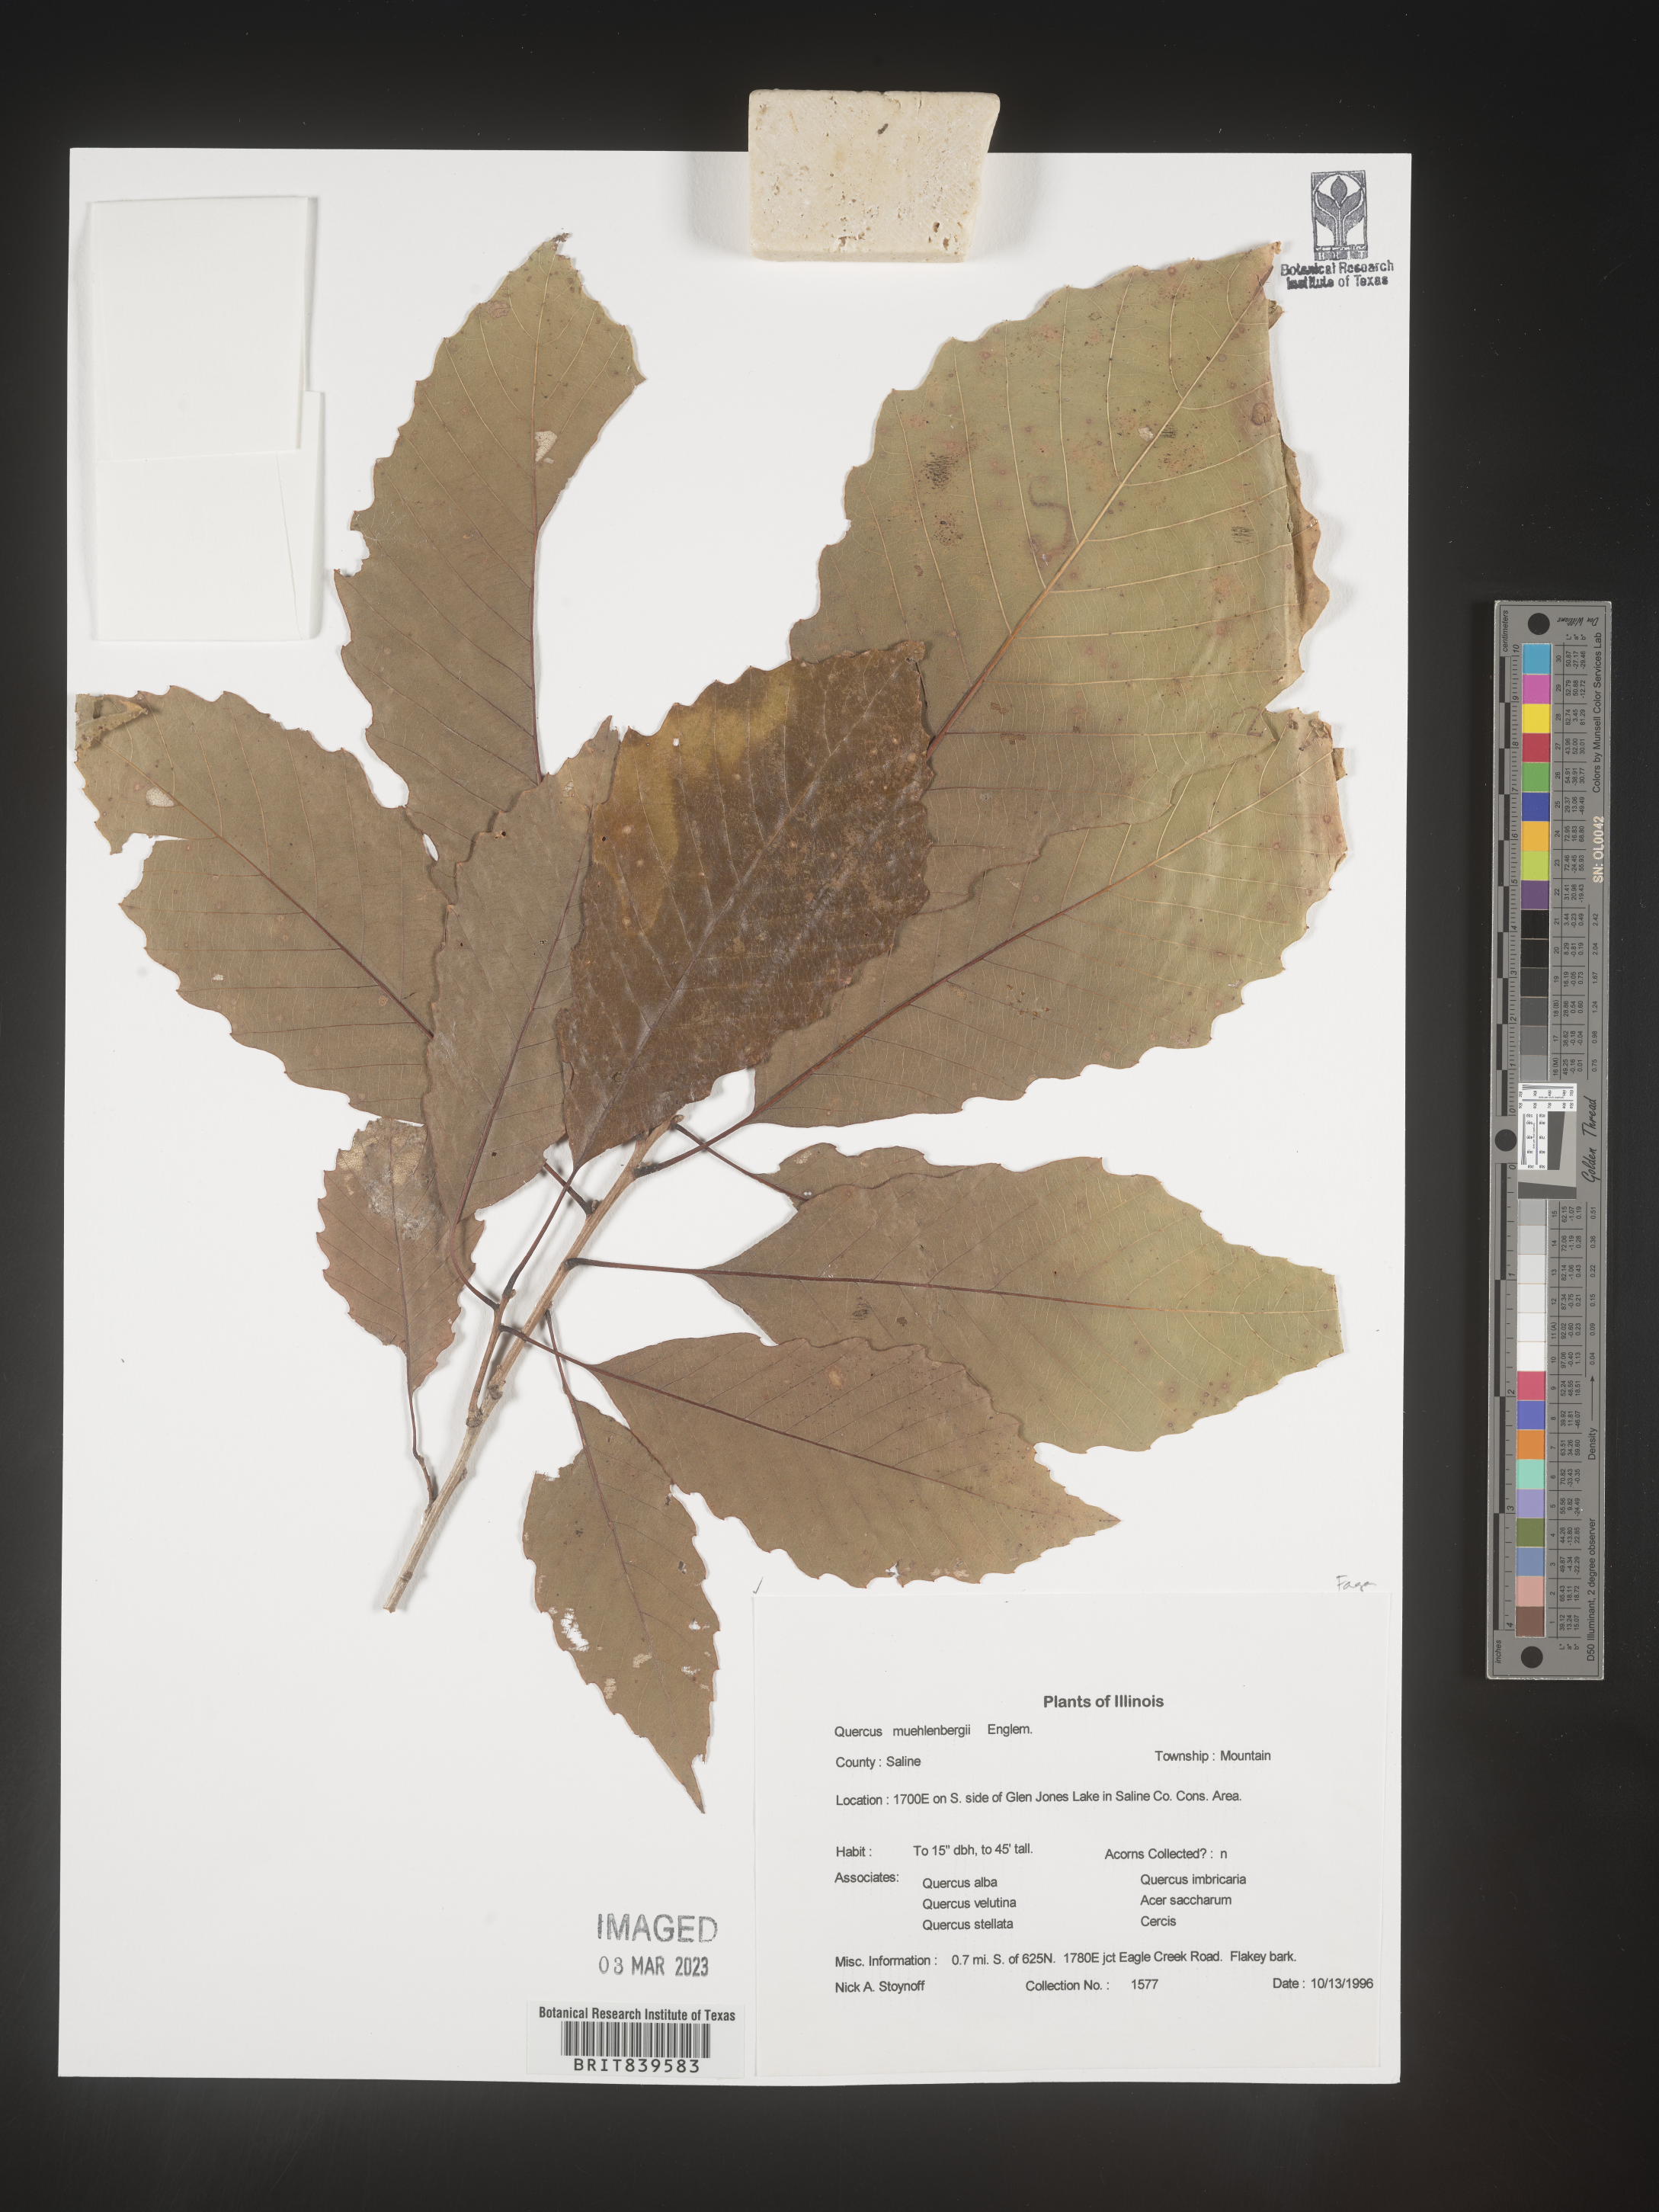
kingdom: Plantae
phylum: Tracheophyta
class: Magnoliopsida
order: Fagales
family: Fagaceae
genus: Quercus
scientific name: Quercus muehlenbergii
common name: Chinkapin oak
